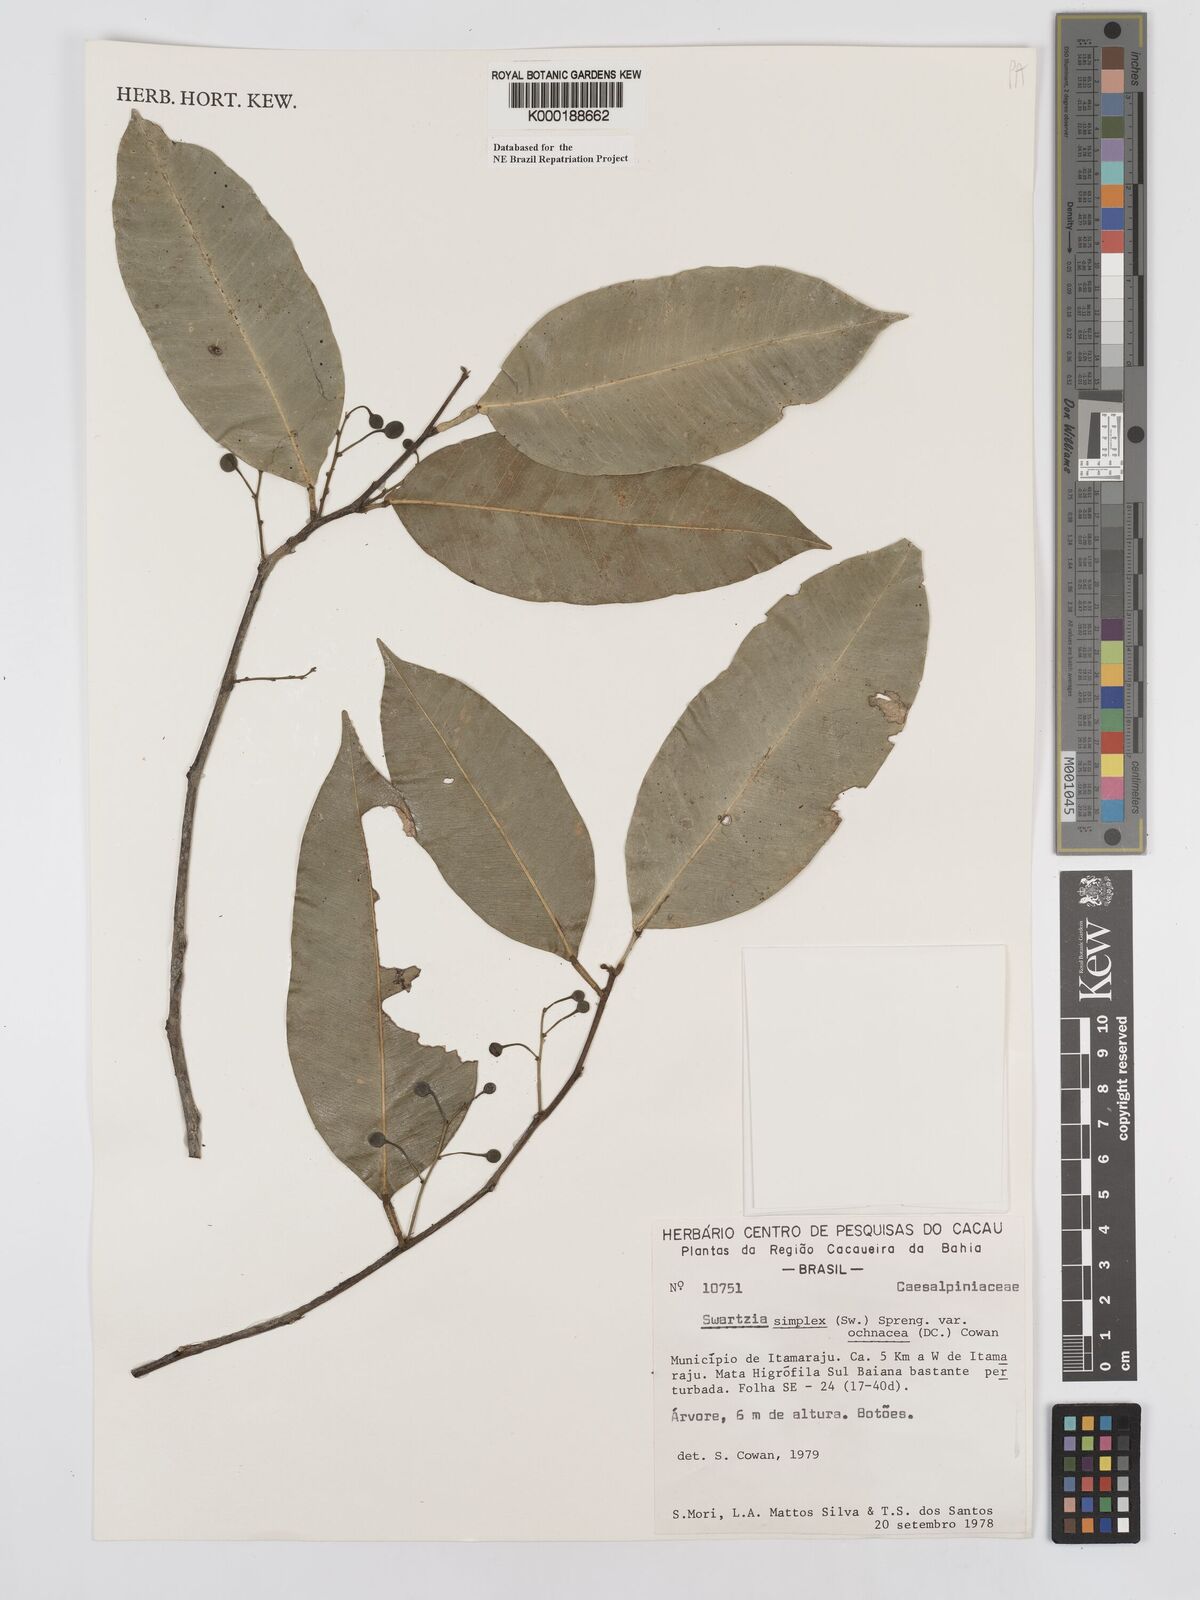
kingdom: Plantae
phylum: Tracheophyta
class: Magnoliopsida
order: Fabales
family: Fabaceae
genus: Swartzia
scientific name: Swartzia simplex
